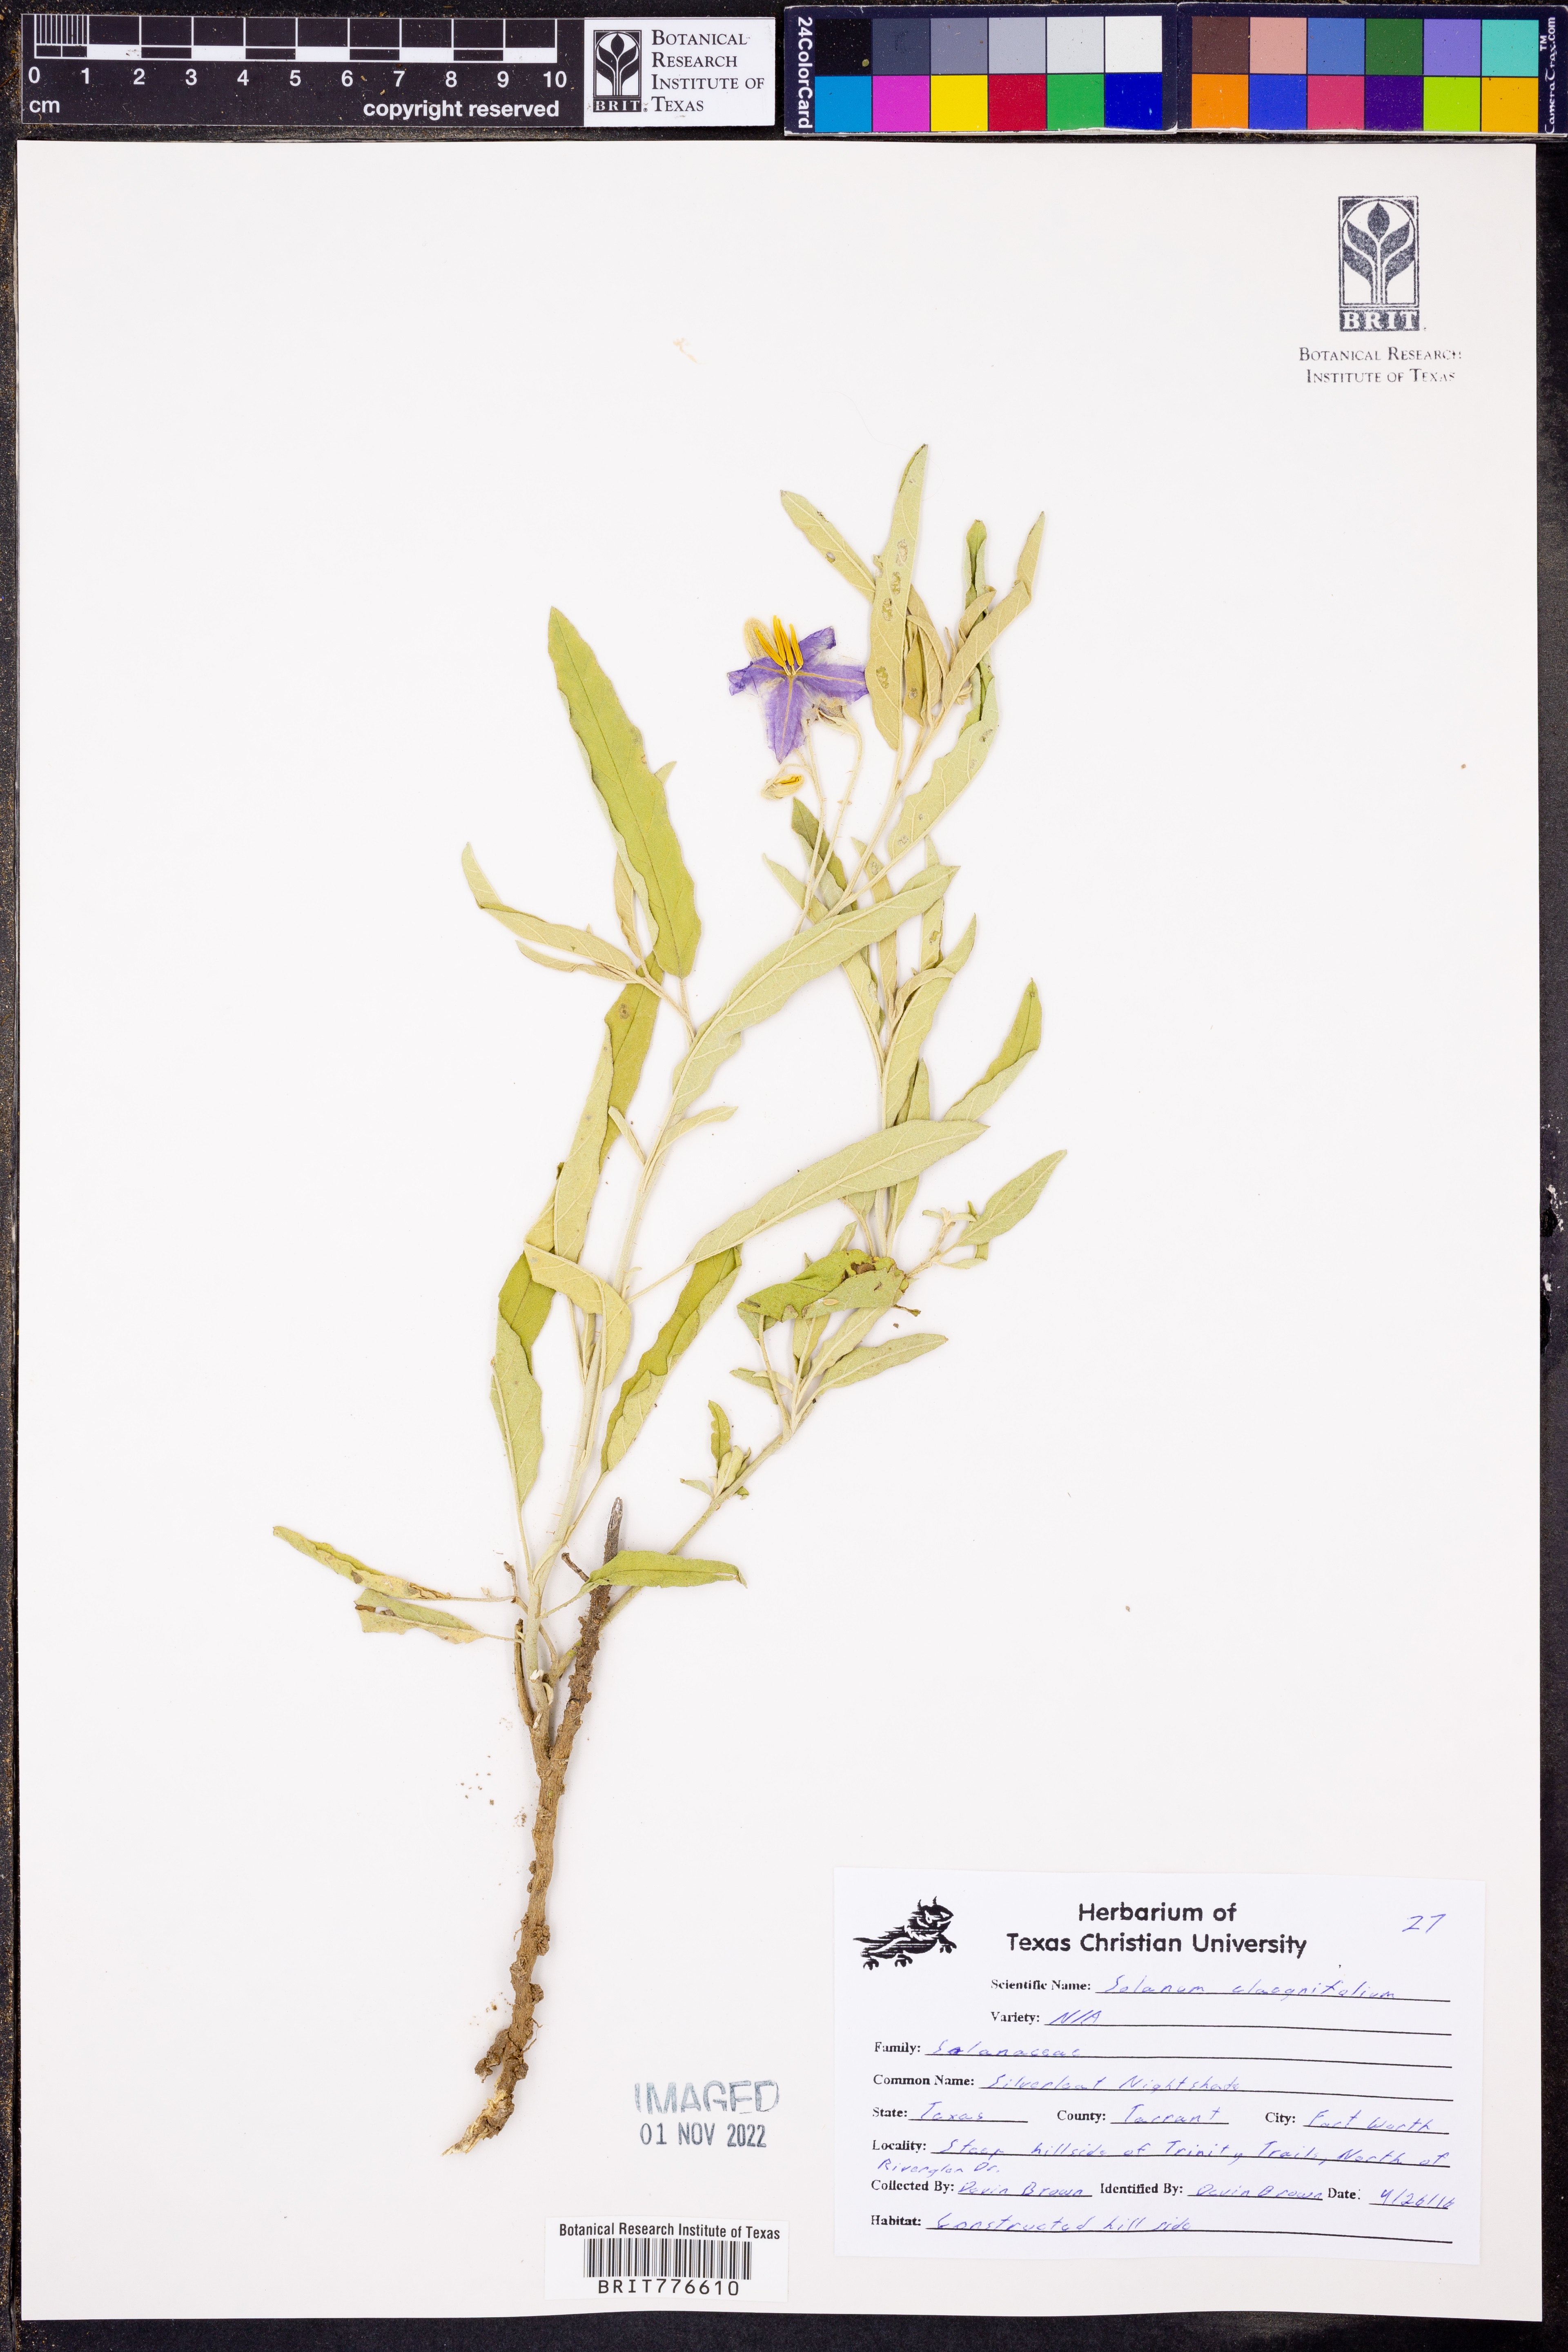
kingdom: Plantae
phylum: Tracheophyta
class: Magnoliopsida
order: Solanales
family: Solanaceae
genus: Solanum
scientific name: Solanum elaeagnifolium
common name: Silverleaf nightshade
